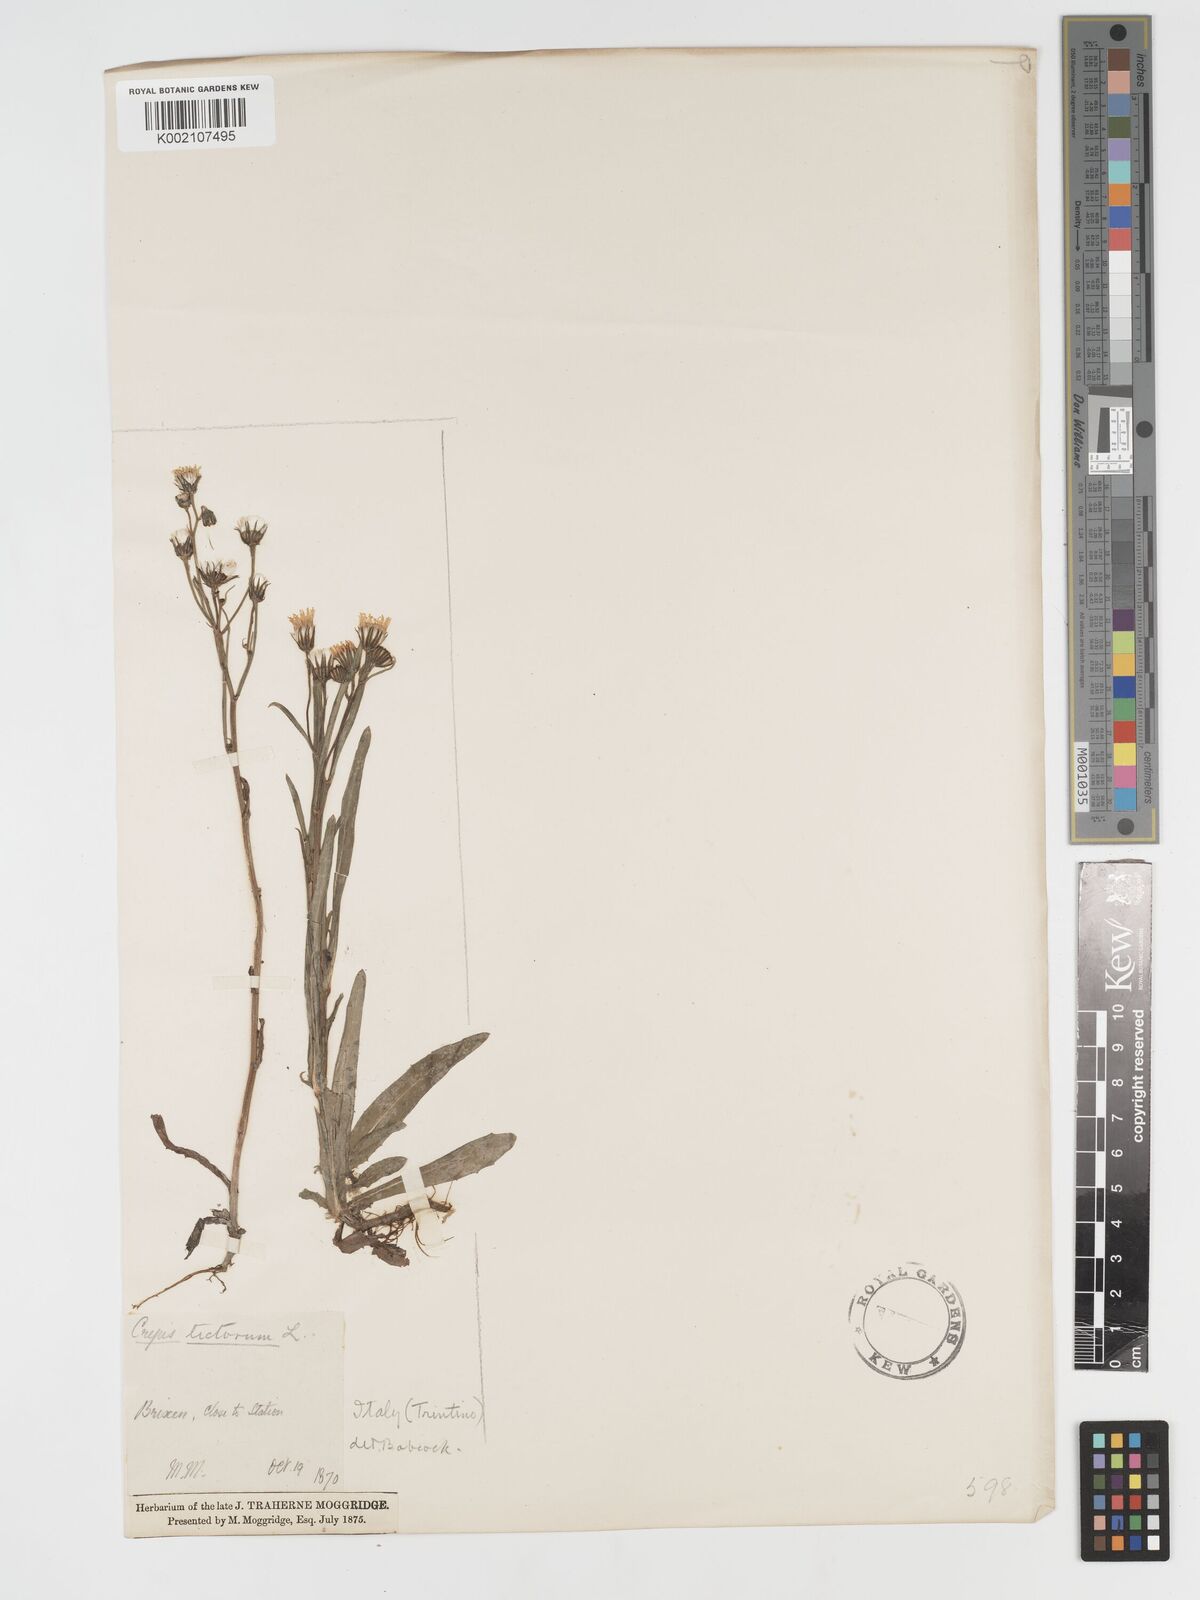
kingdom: Plantae
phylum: Tracheophyta
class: Magnoliopsida
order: Asterales
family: Asteraceae
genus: Crepis
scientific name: Crepis tectorum
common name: Narrow-leaved hawk's-beard
